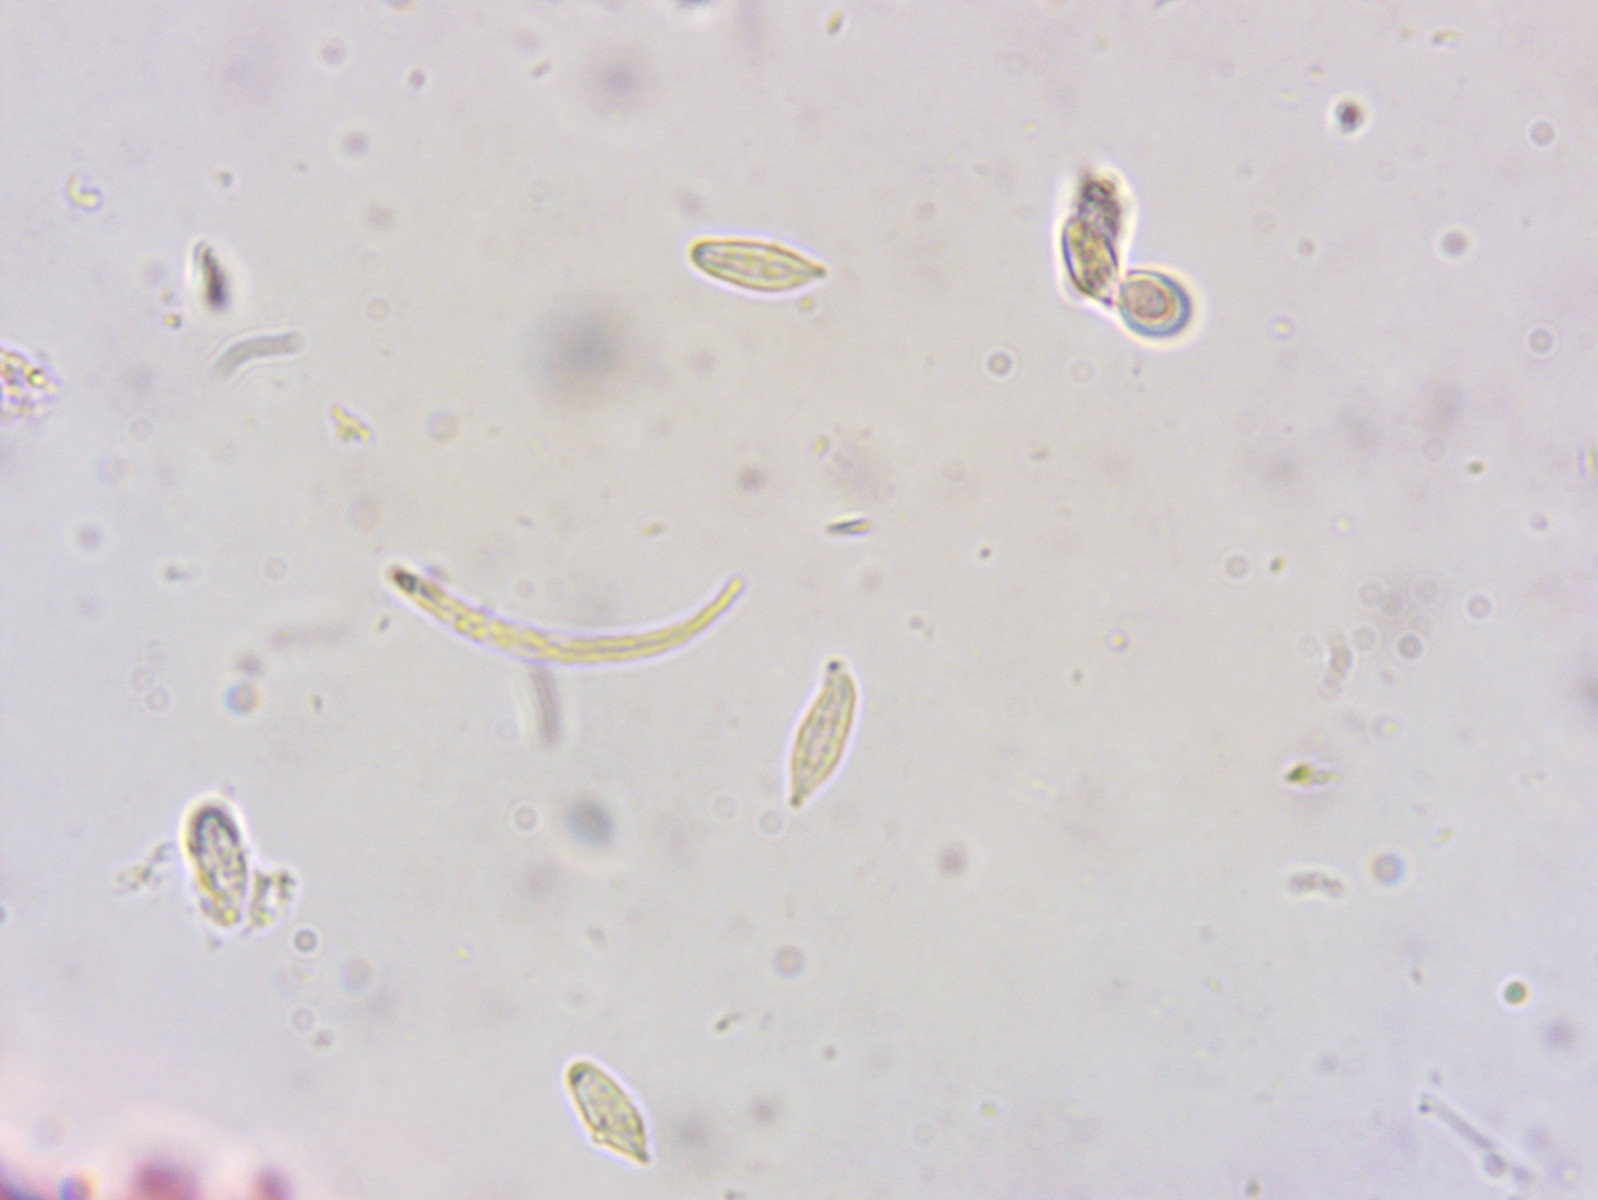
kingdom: Fungi
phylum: Basidiomycota
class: Agaricomycetes
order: Agaricales
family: Mycenaceae
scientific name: Mycenaceae
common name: huesvampfamilien
